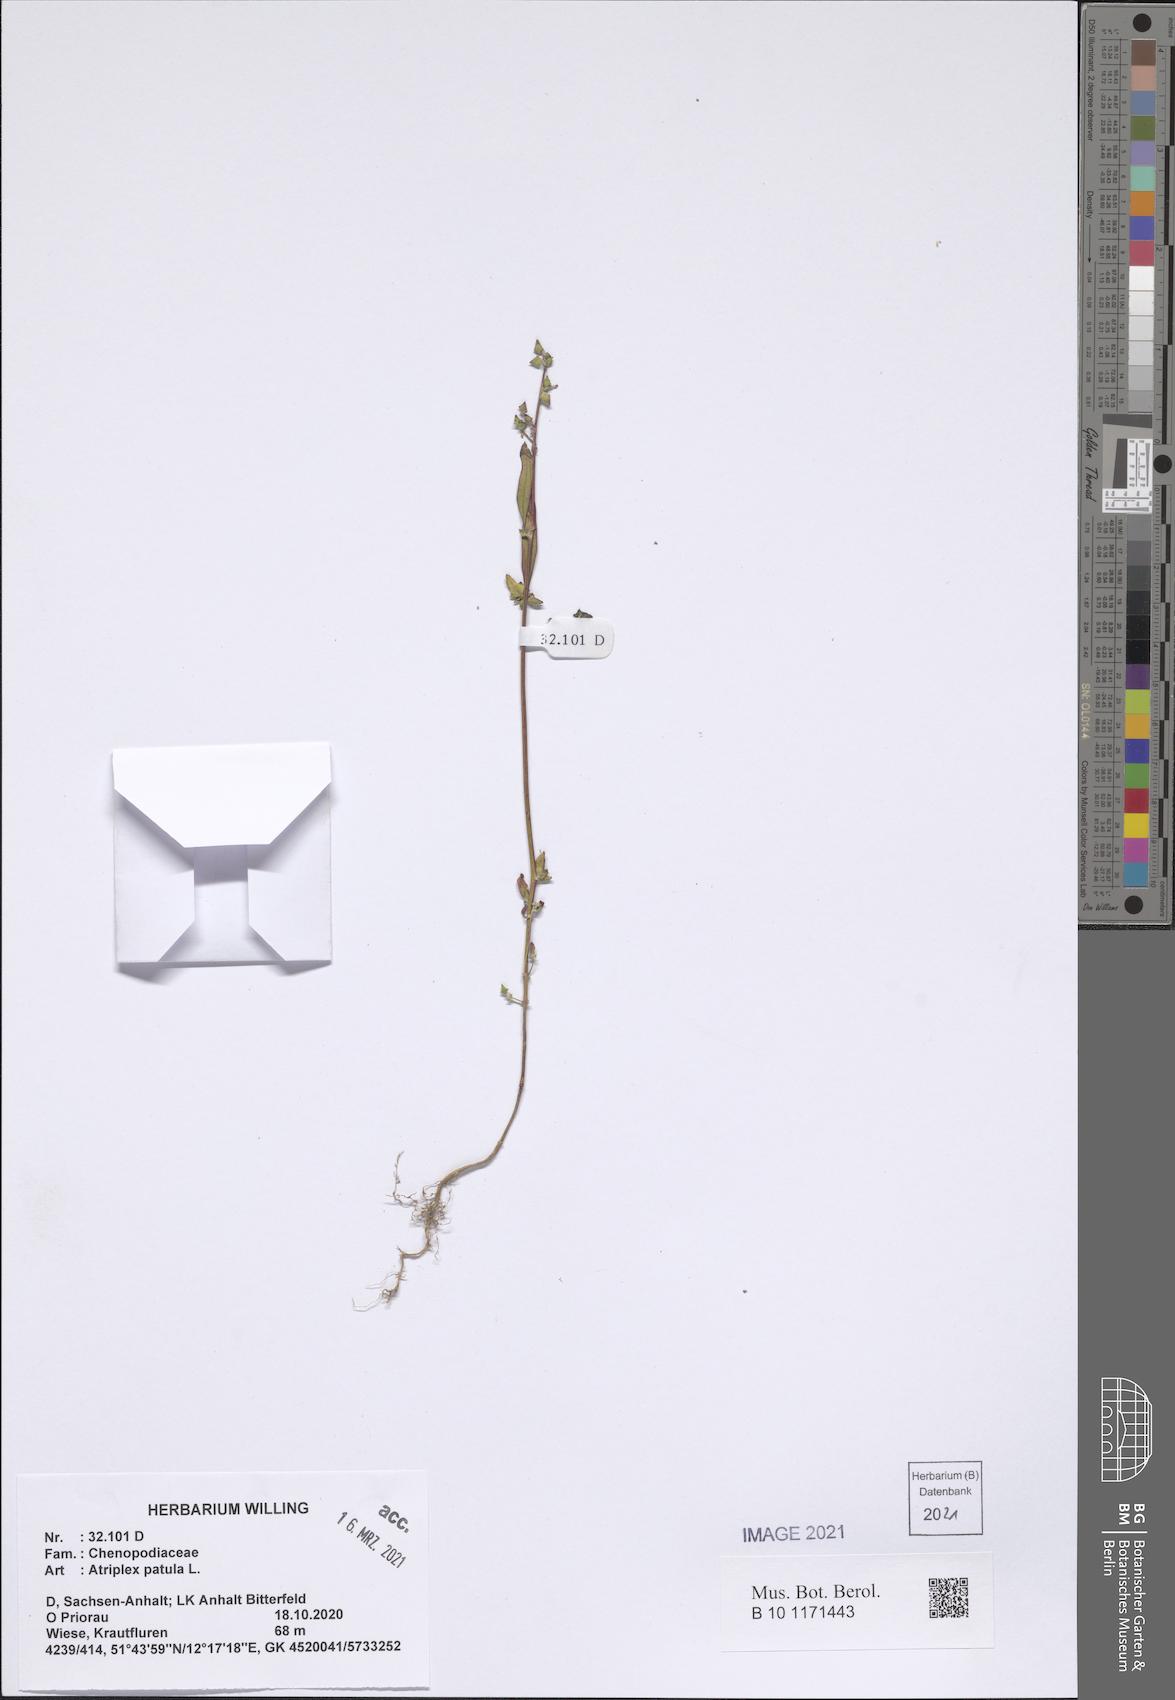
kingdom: Plantae
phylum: Tracheophyta
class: Magnoliopsida
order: Caryophyllales
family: Amaranthaceae
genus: Atriplex
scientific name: Atriplex patula
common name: Common orache
